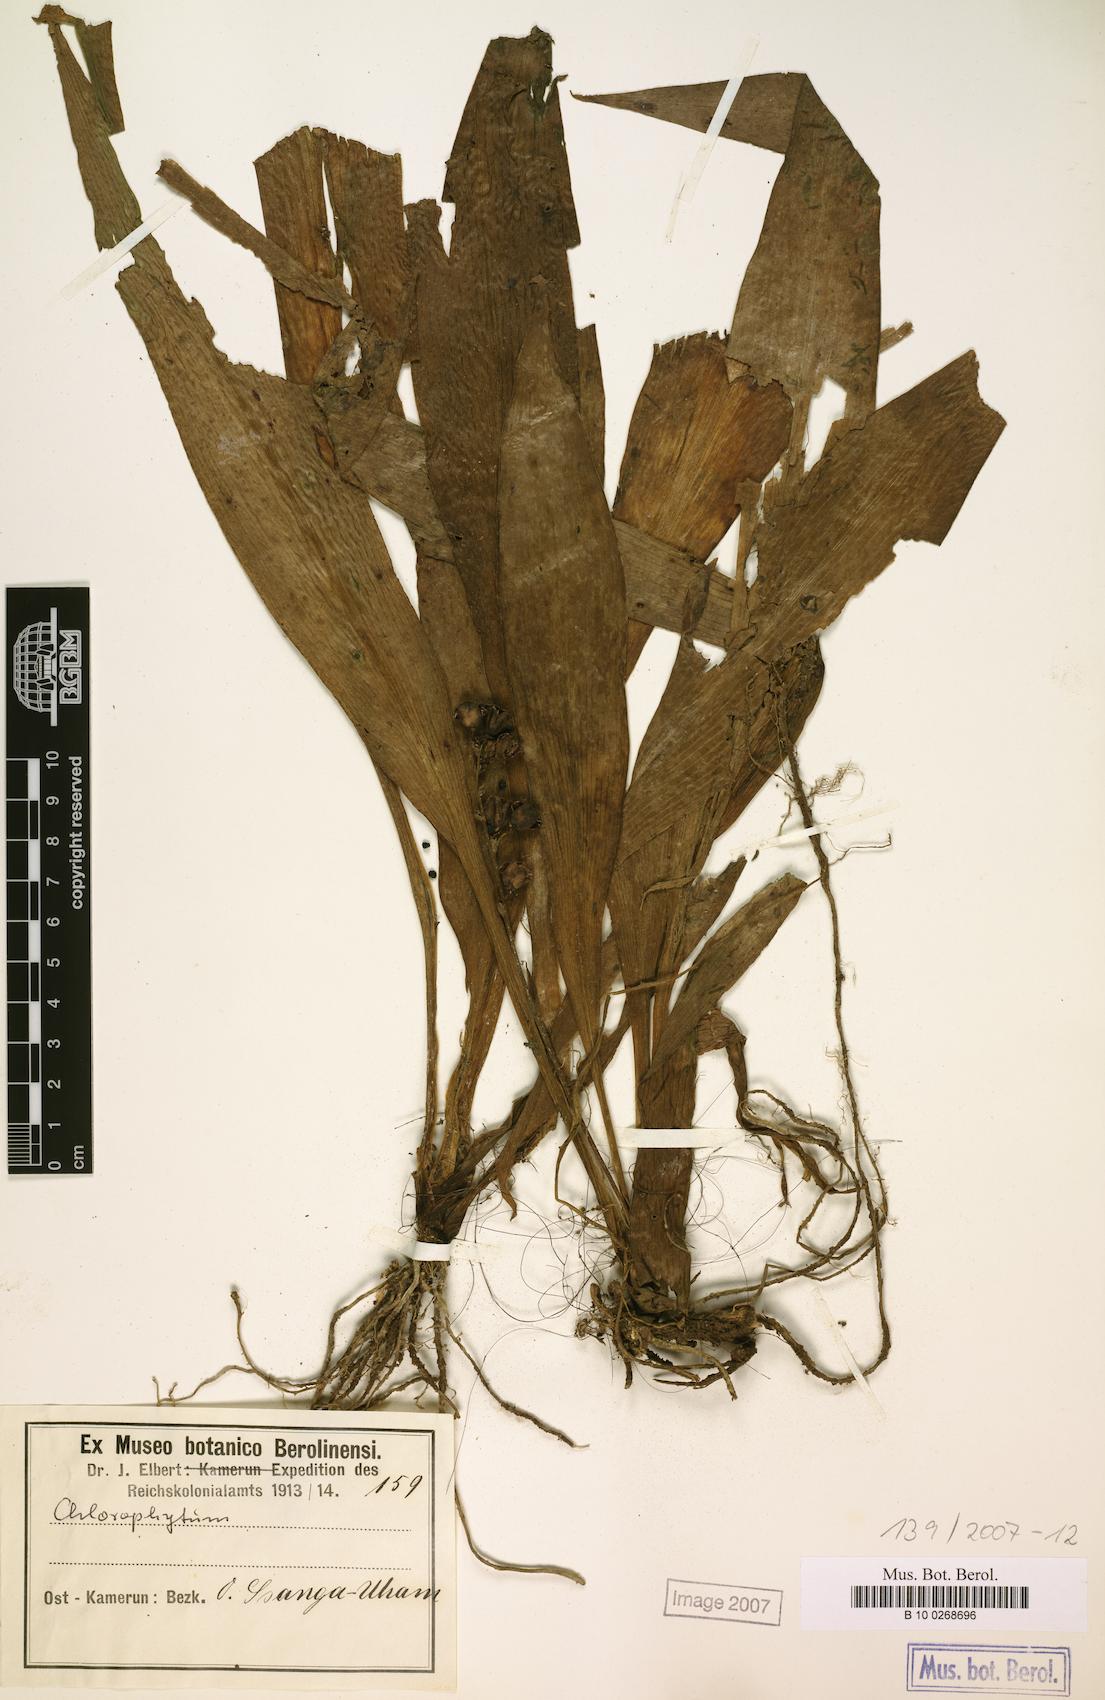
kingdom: Plantae
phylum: Tracheophyta
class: Liliopsida
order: Asparagales
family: Asparagaceae
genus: Chlorophytum
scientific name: Chlorophytum stenopetalum
